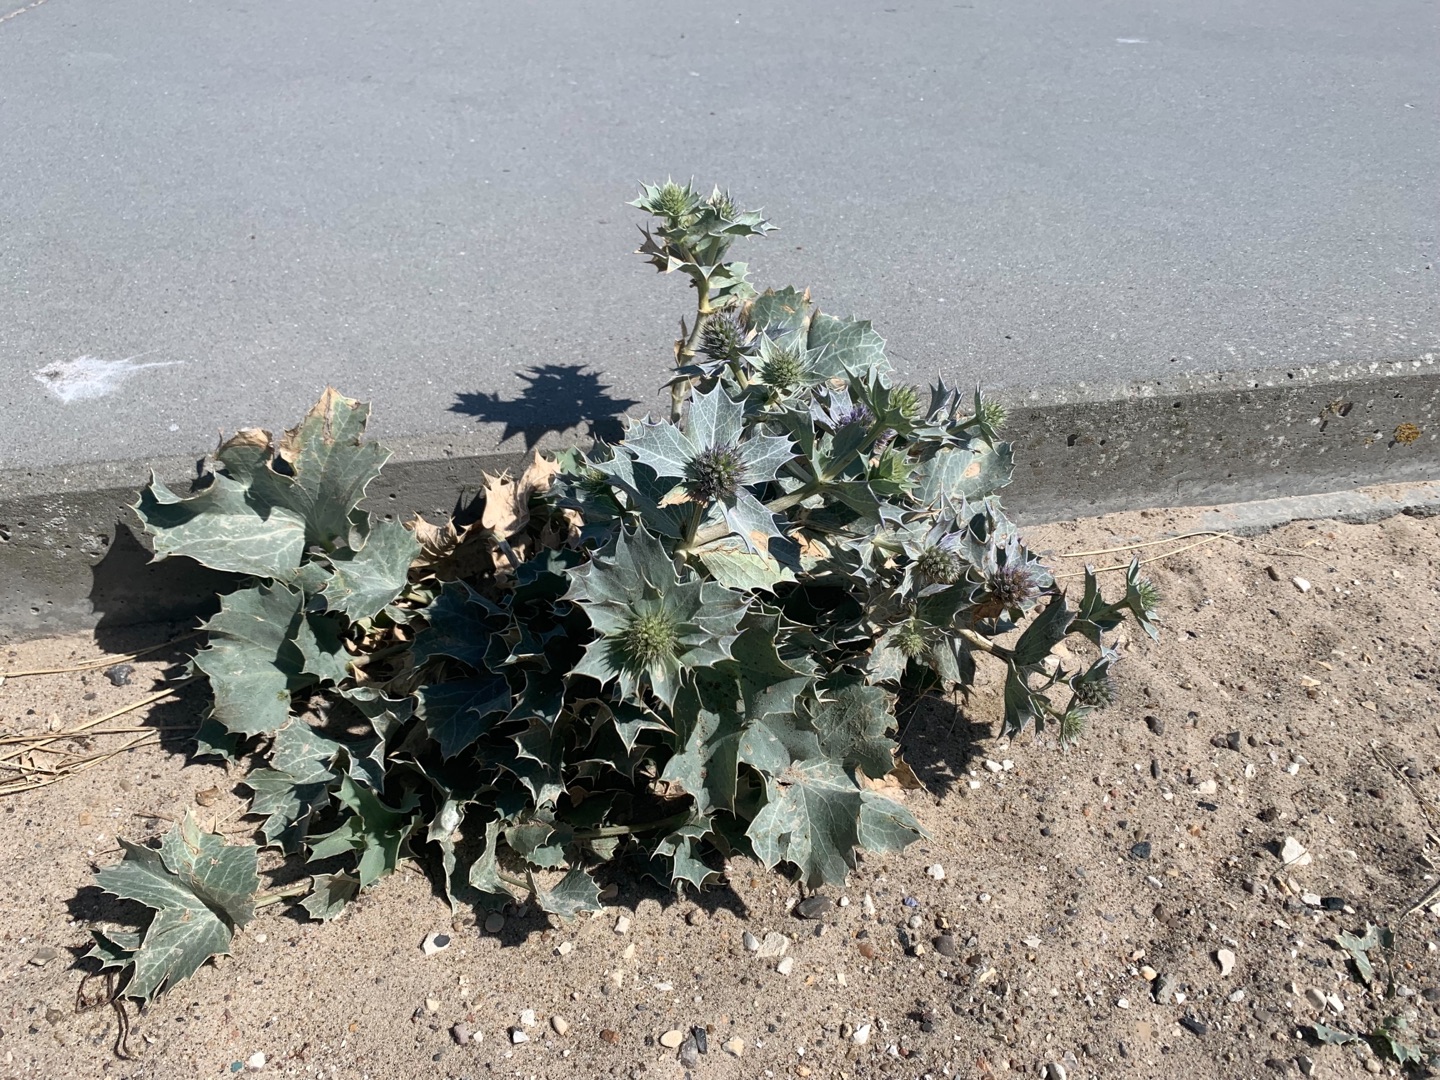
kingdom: Plantae
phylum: Tracheophyta
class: Magnoliopsida
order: Apiales
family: Apiaceae
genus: Eryngium
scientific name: Eryngium maritimum
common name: Strand-mandstro
